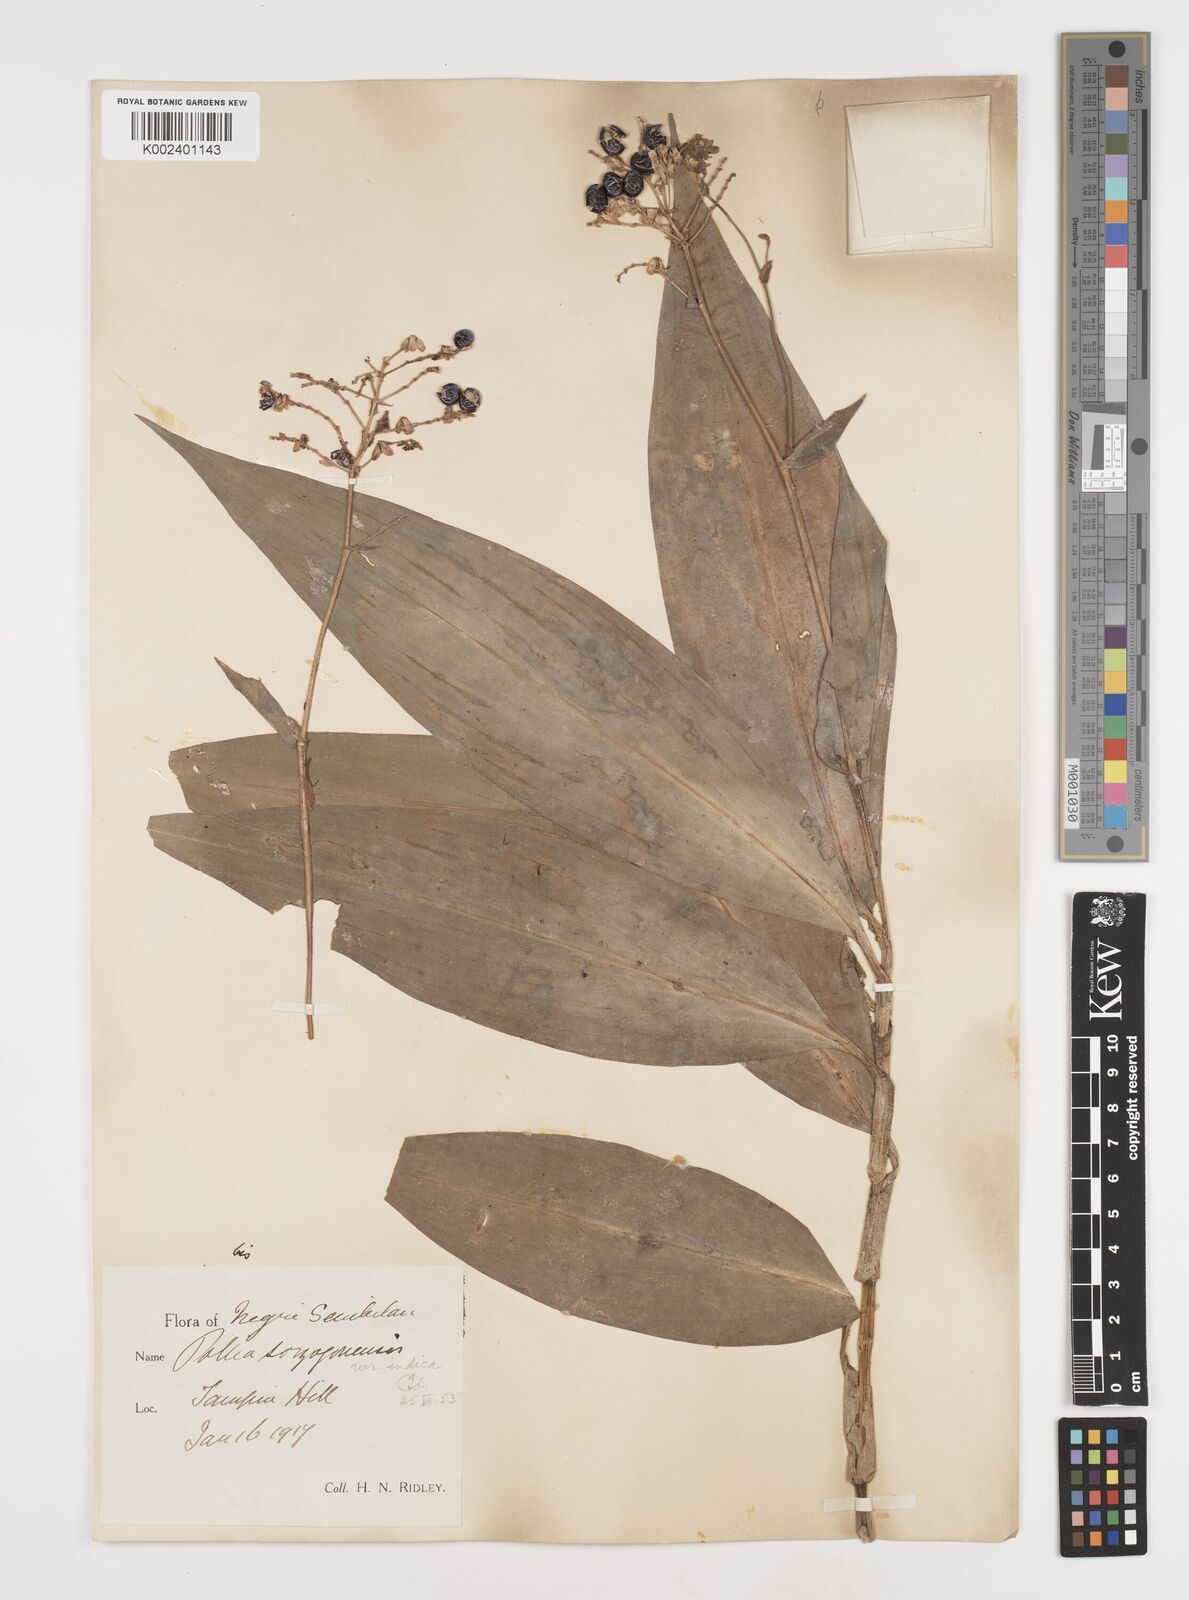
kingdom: Plantae
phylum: Tracheophyta
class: Liliopsida
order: Commelinales
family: Commelinaceae
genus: Pollia
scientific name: Pollia secundiflora
